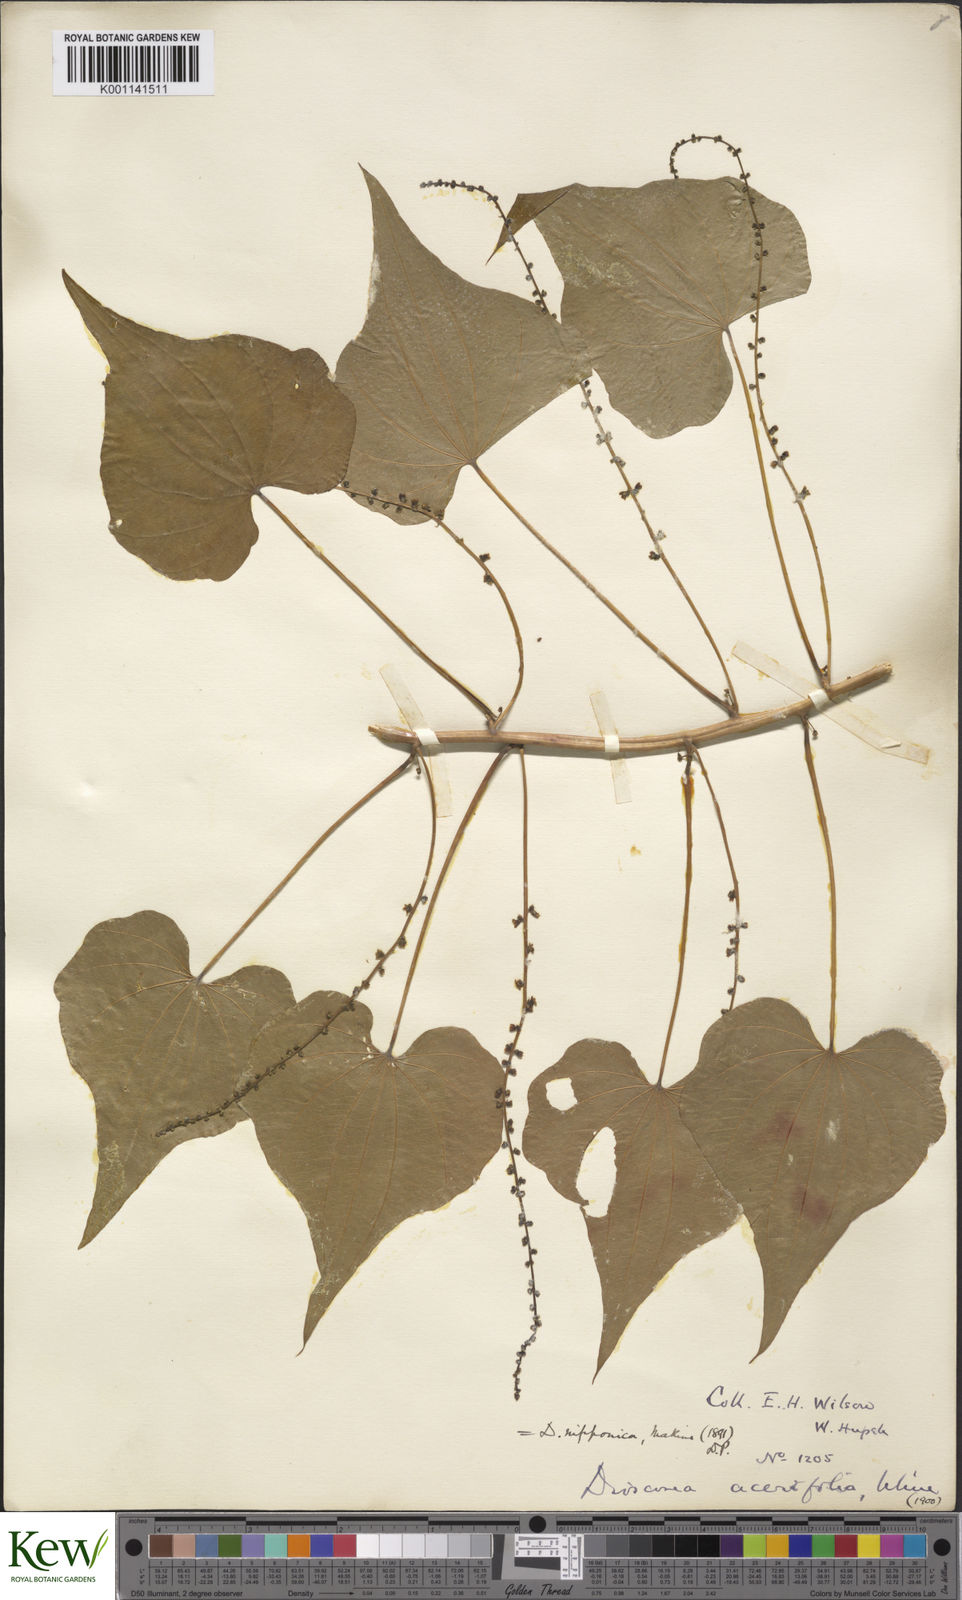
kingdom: Plantae
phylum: Tracheophyta
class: Liliopsida
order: Dioscoreales
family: Dioscoreaceae
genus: Dioscorea
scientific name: Dioscorea nipponica
